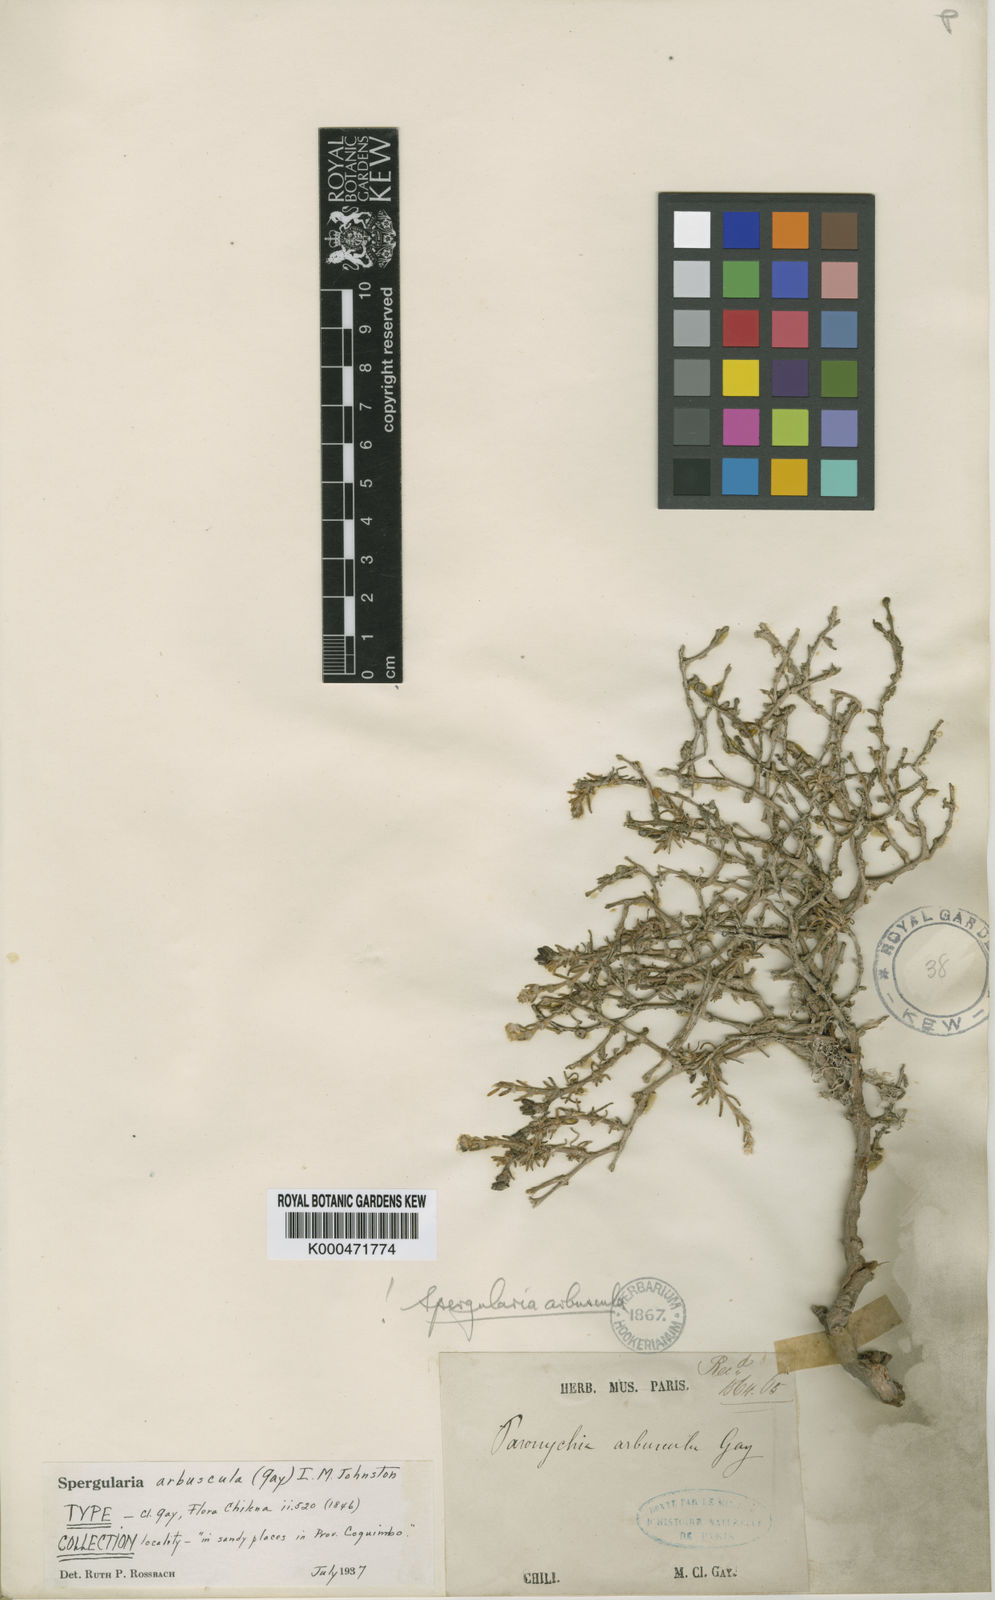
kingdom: Plantae
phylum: Tracheophyta
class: Magnoliopsida
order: Caryophyllales
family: Caryophyllaceae
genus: Spergularia
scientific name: Spergularia arbuscula
